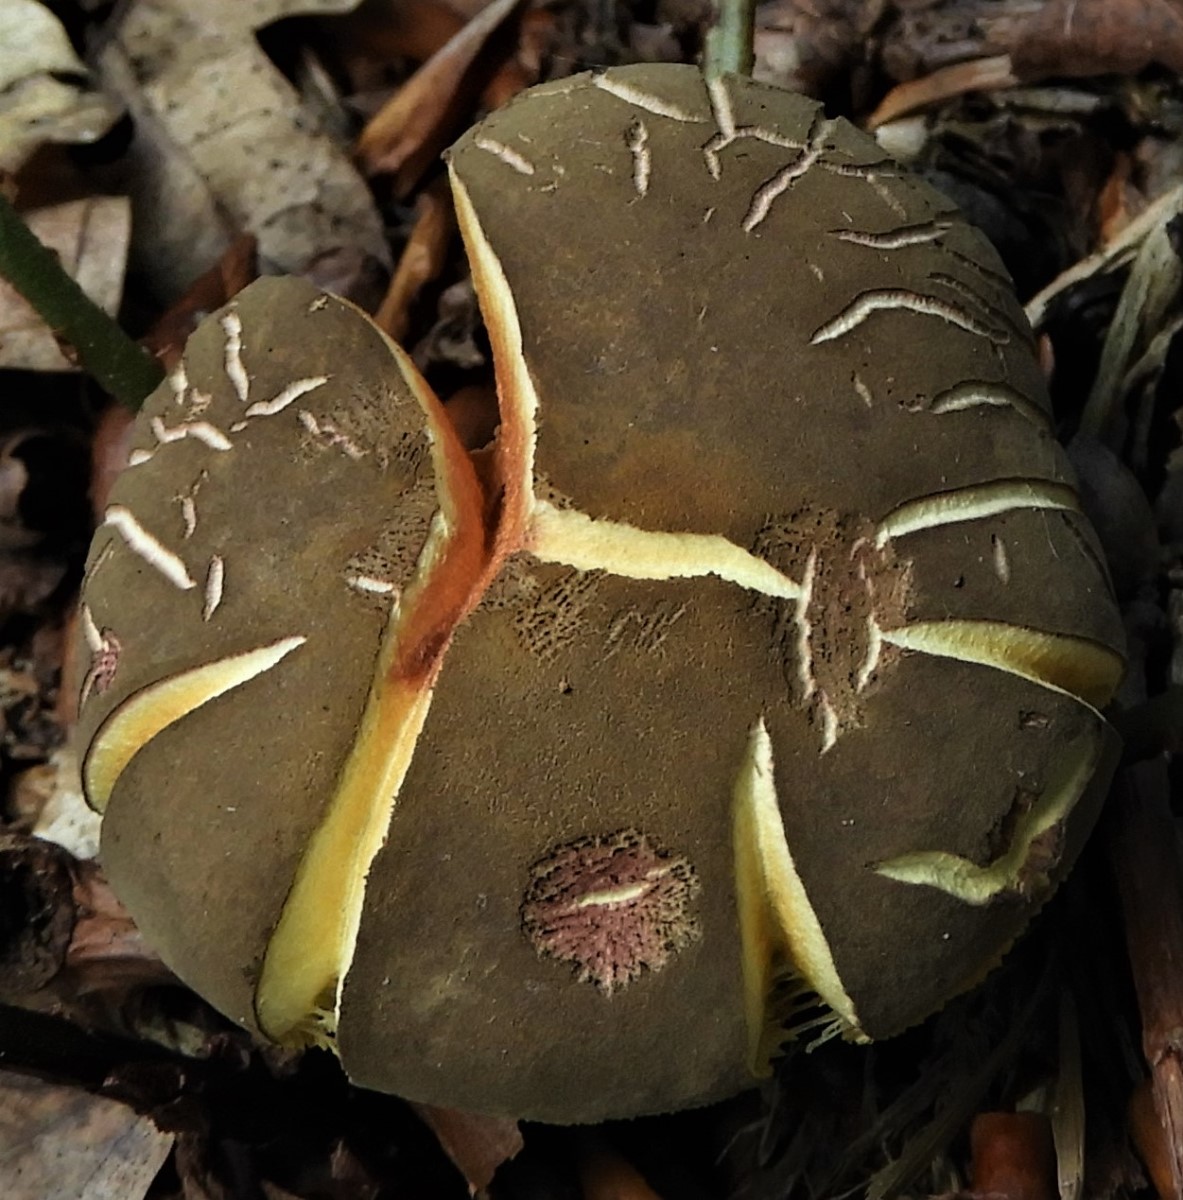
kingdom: Fungi
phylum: Basidiomycota
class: Agaricomycetes
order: Boletales
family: Boletaceae
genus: Xerocomellus
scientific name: Xerocomellus chrysenteron
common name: rødsprukken rørhat
